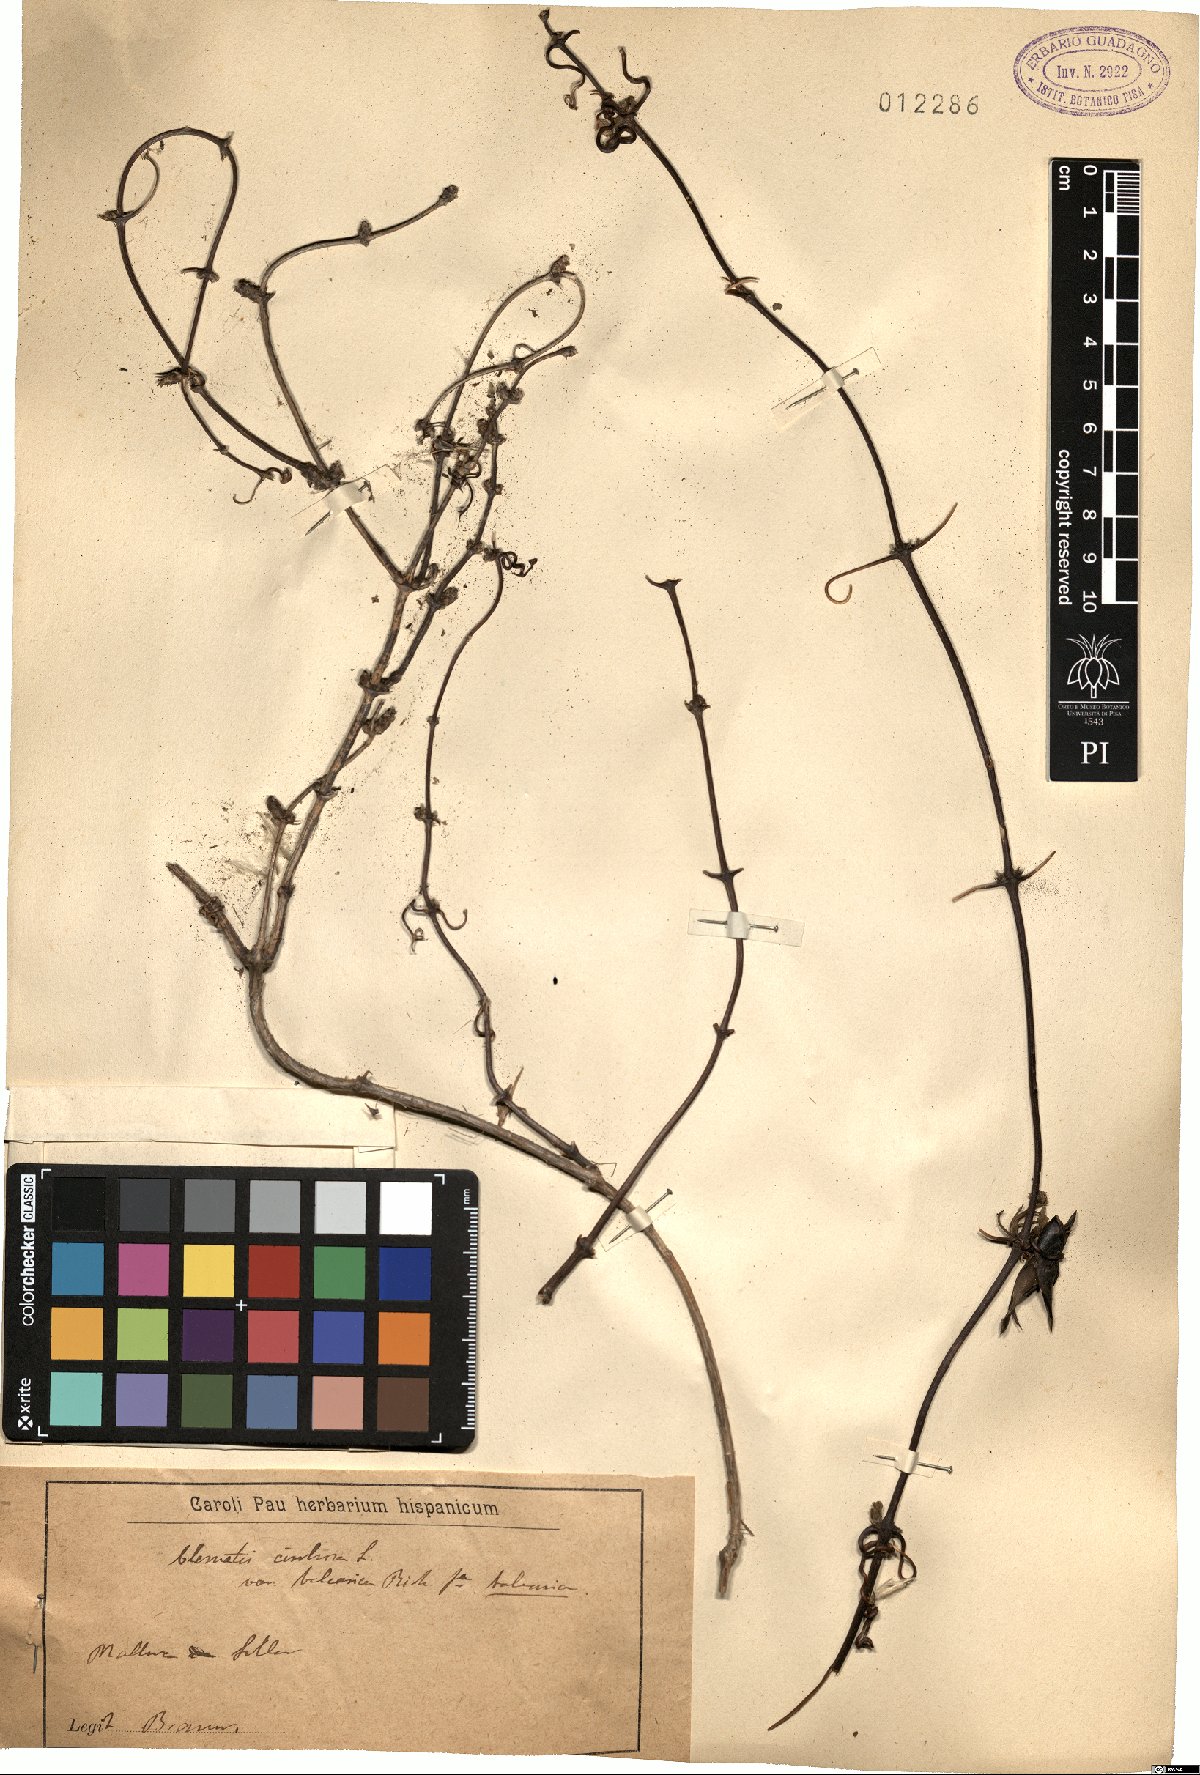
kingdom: Plantae
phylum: Tracheophyta
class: Magnoliopsida
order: Ranunculales
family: Ranunculaceae
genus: Clematis
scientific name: Clematis cirrhosa
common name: Early virgin's-bower
